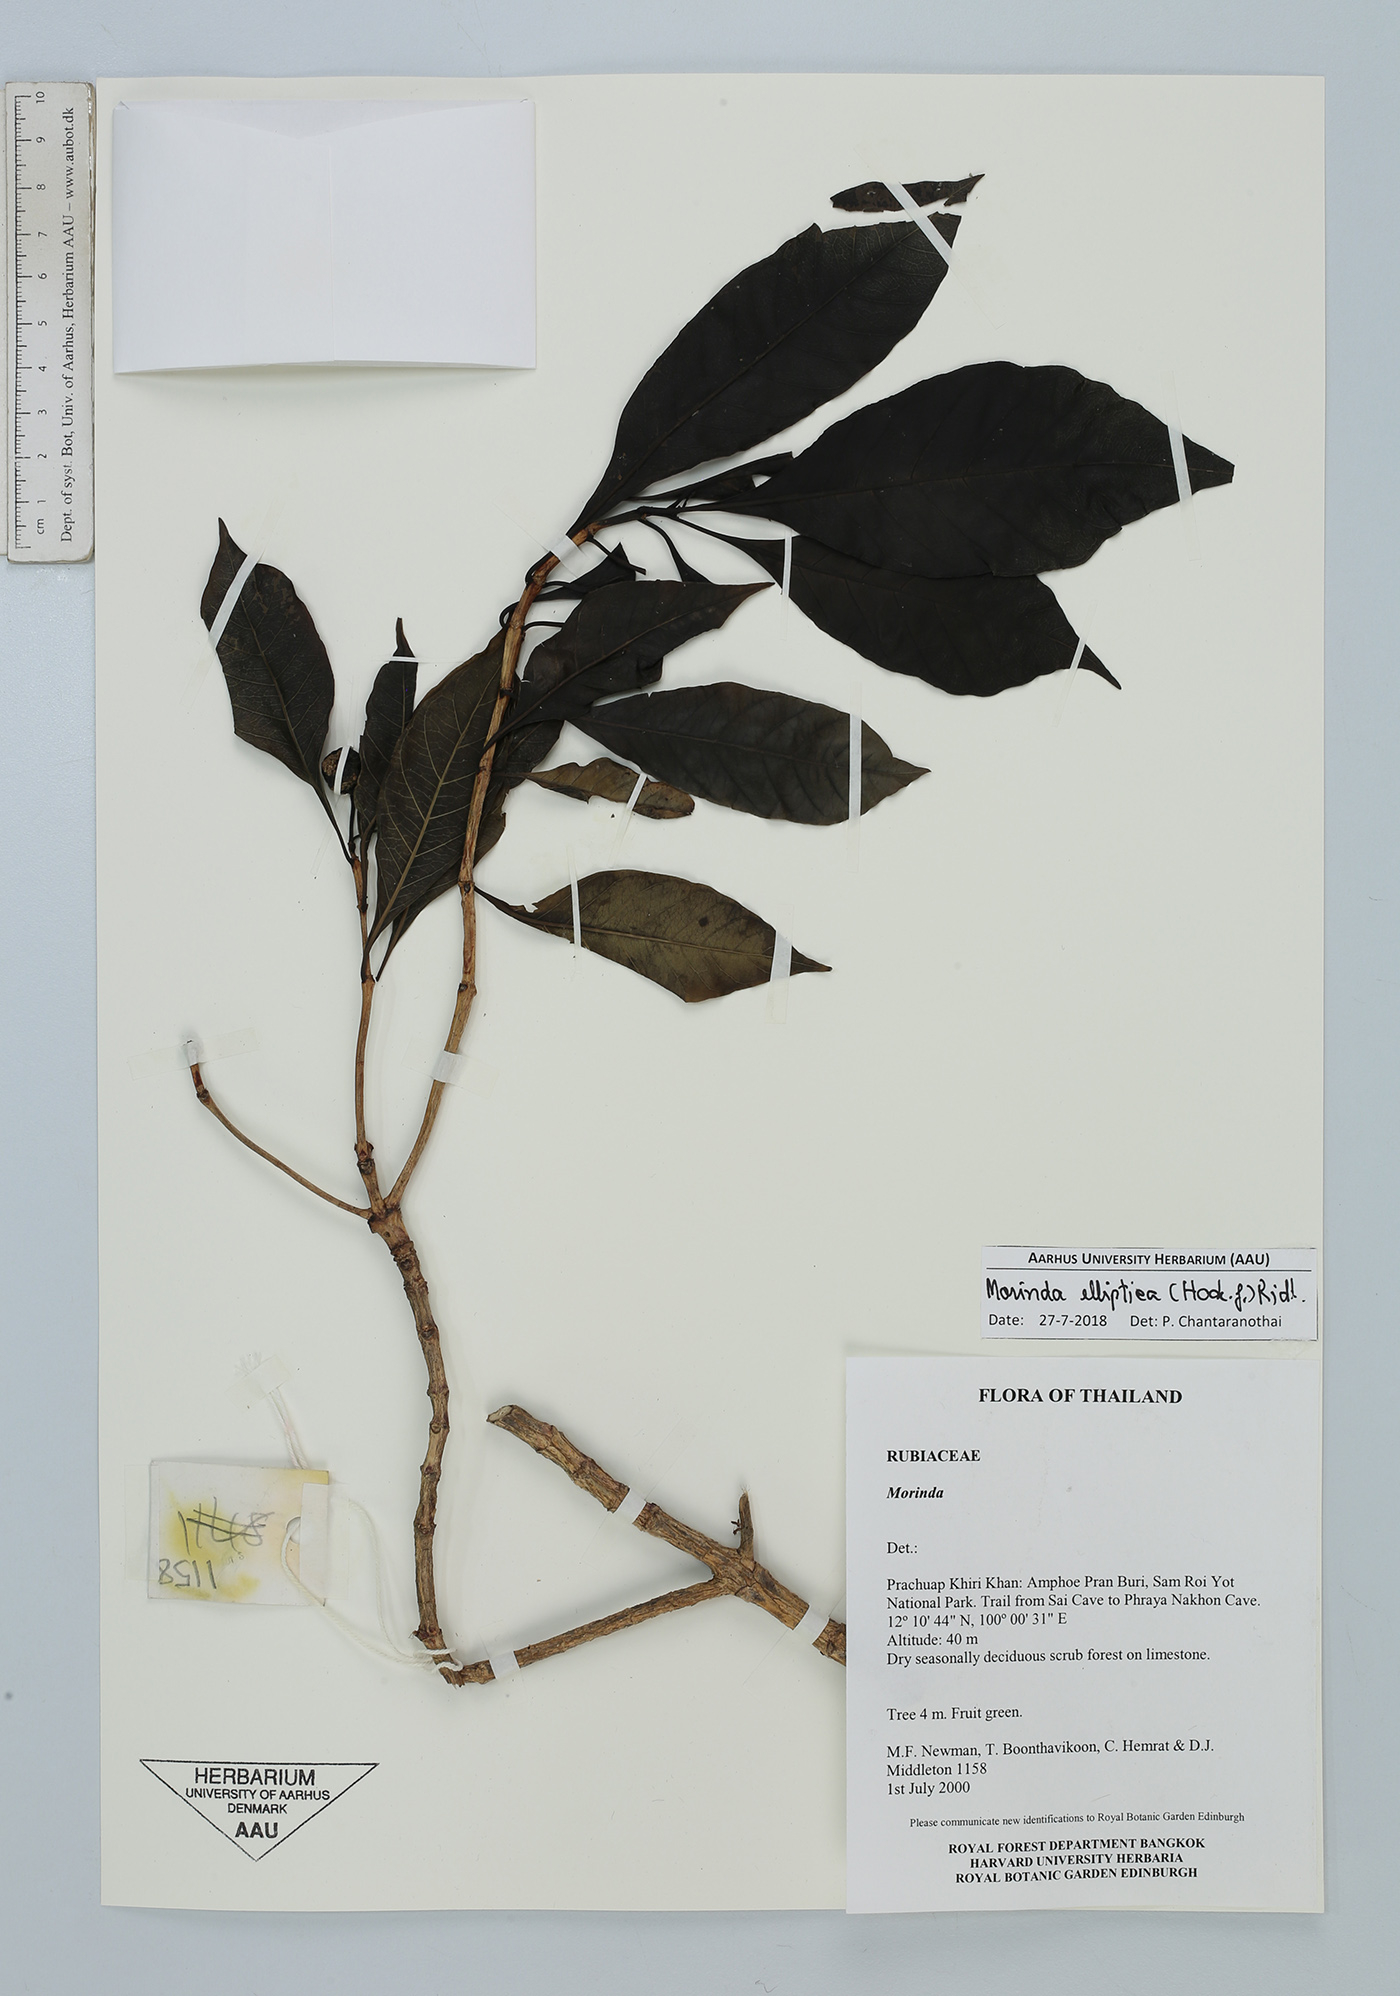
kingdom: Plantae
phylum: Tracheophyta
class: Magnoliopsida
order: Gentianales
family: Rubiaceae
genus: Morinda
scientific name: Morinda elliptica
